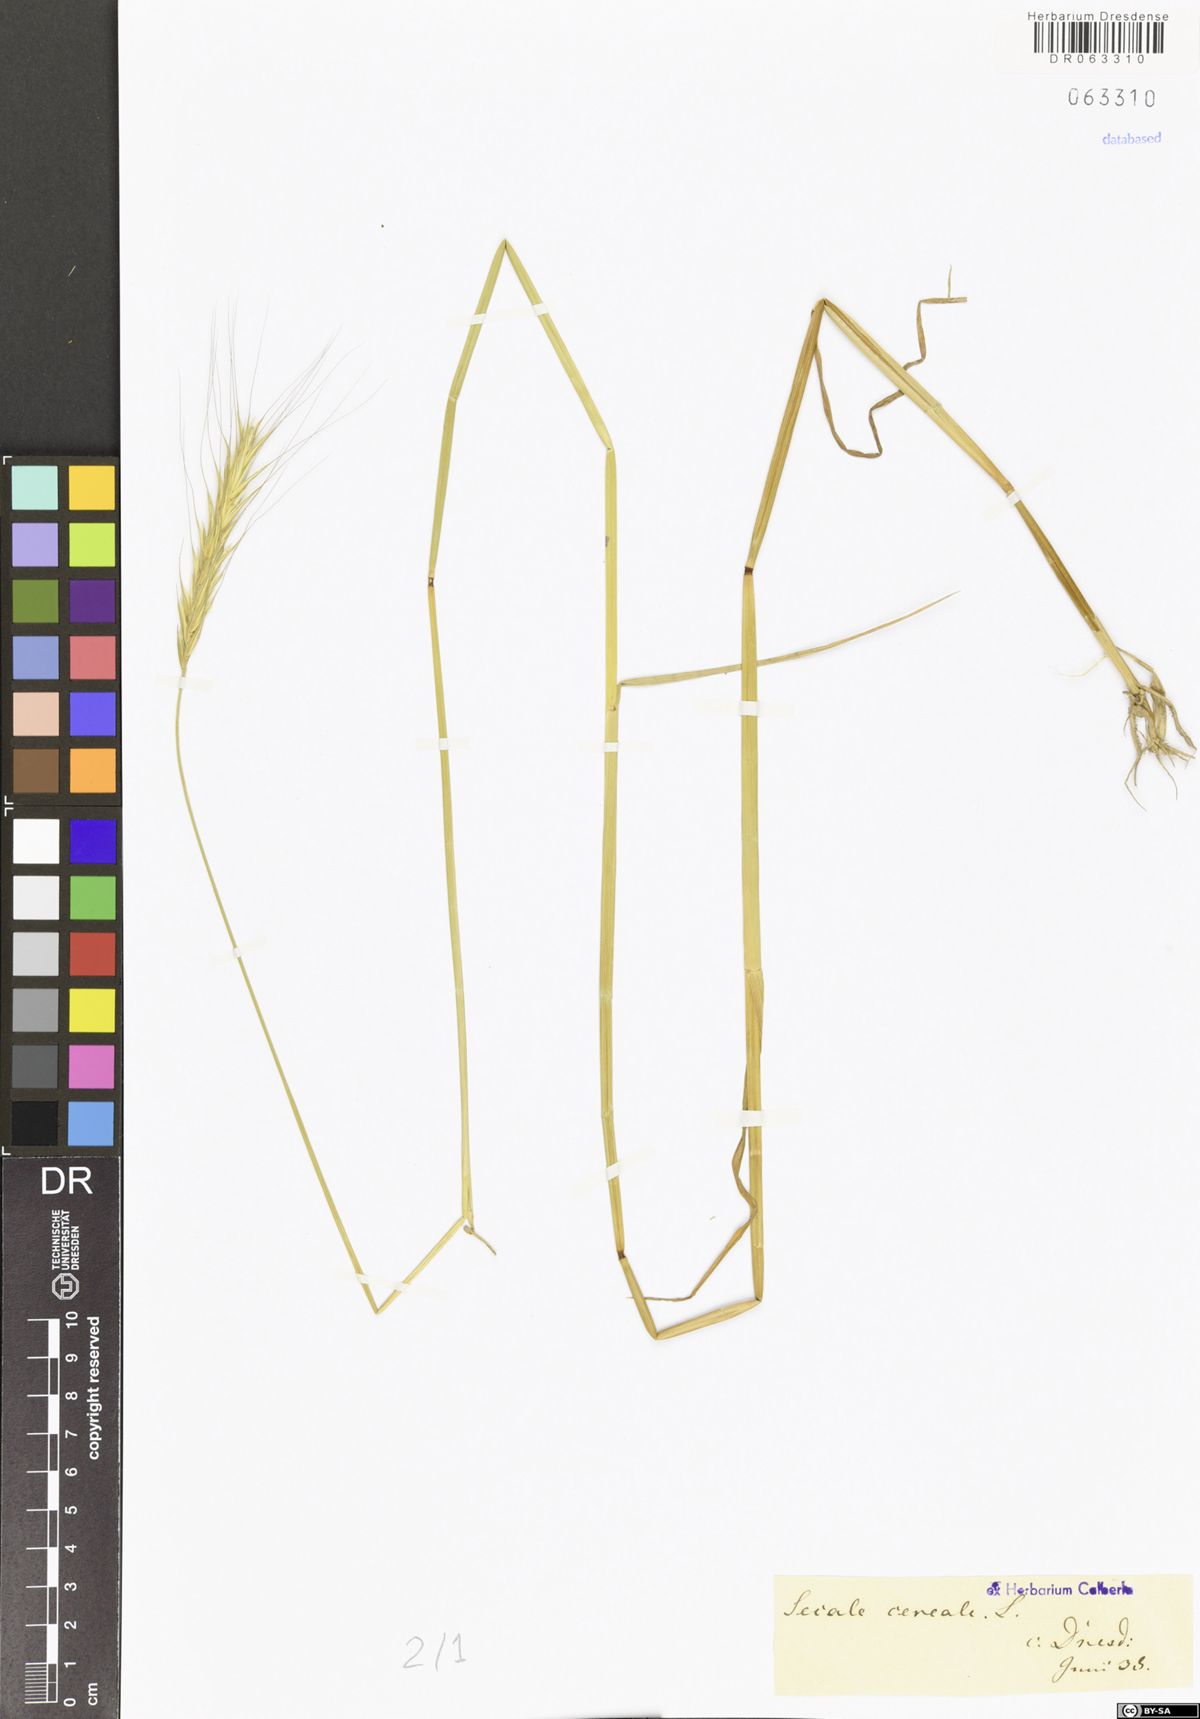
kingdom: Plantae
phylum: Tracheophyta
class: Liliopsida
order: Poales
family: Poaceae
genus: Secale
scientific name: Secale cereale
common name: Rye
